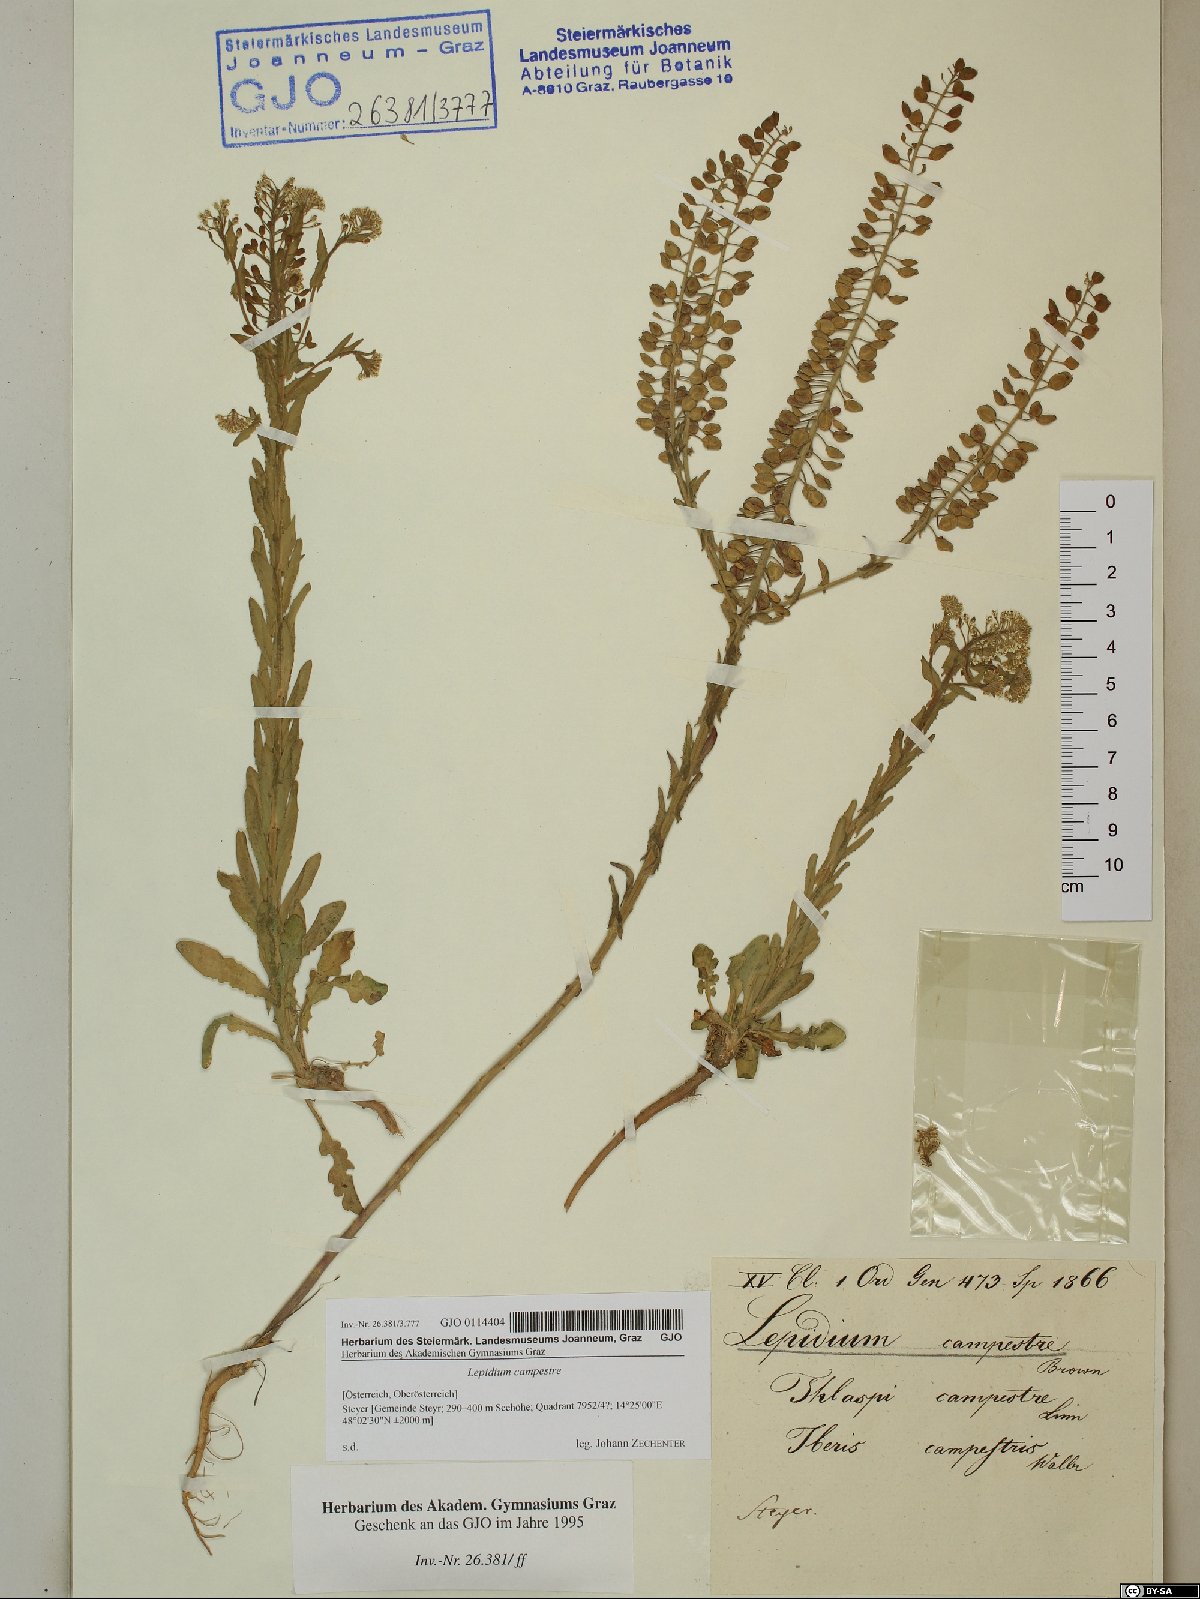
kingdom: Plantae
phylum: Tracheophyta
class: Magnoliopsida
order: Brassicales
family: Brassicaceae
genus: Lepidium
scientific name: Lepidium campestre
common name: Field pepperwort
